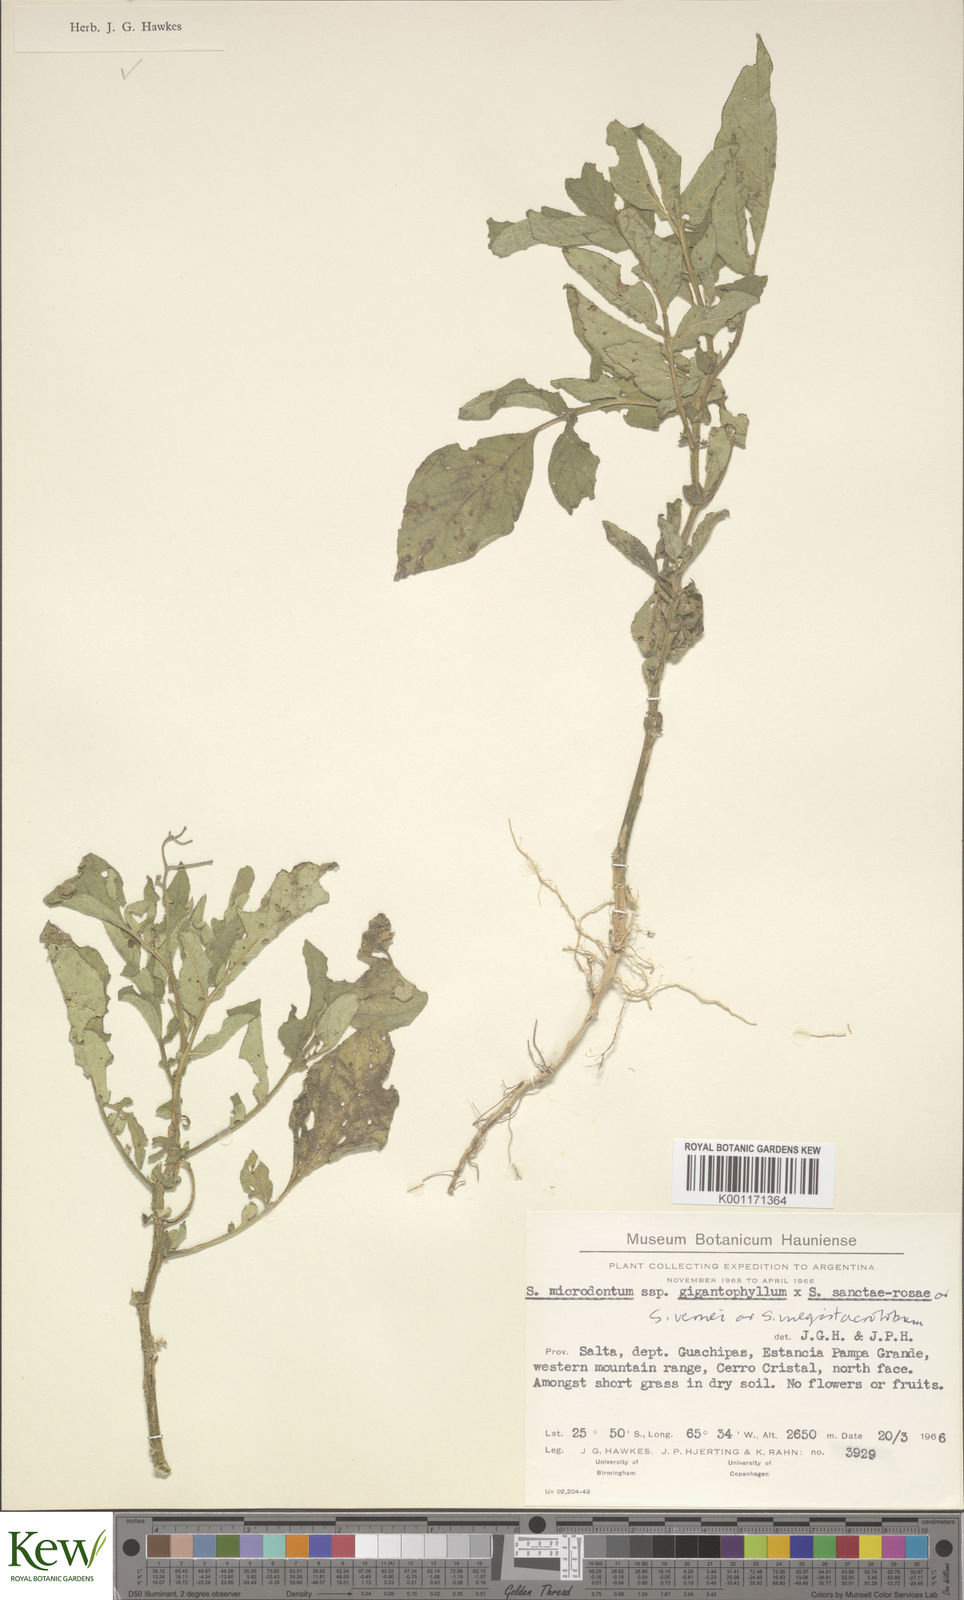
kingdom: Plantae
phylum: Tracheophyta
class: Magnoliopsida
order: Solanales
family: Solanaceae
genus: Solanum
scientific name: Solanum microdontum
